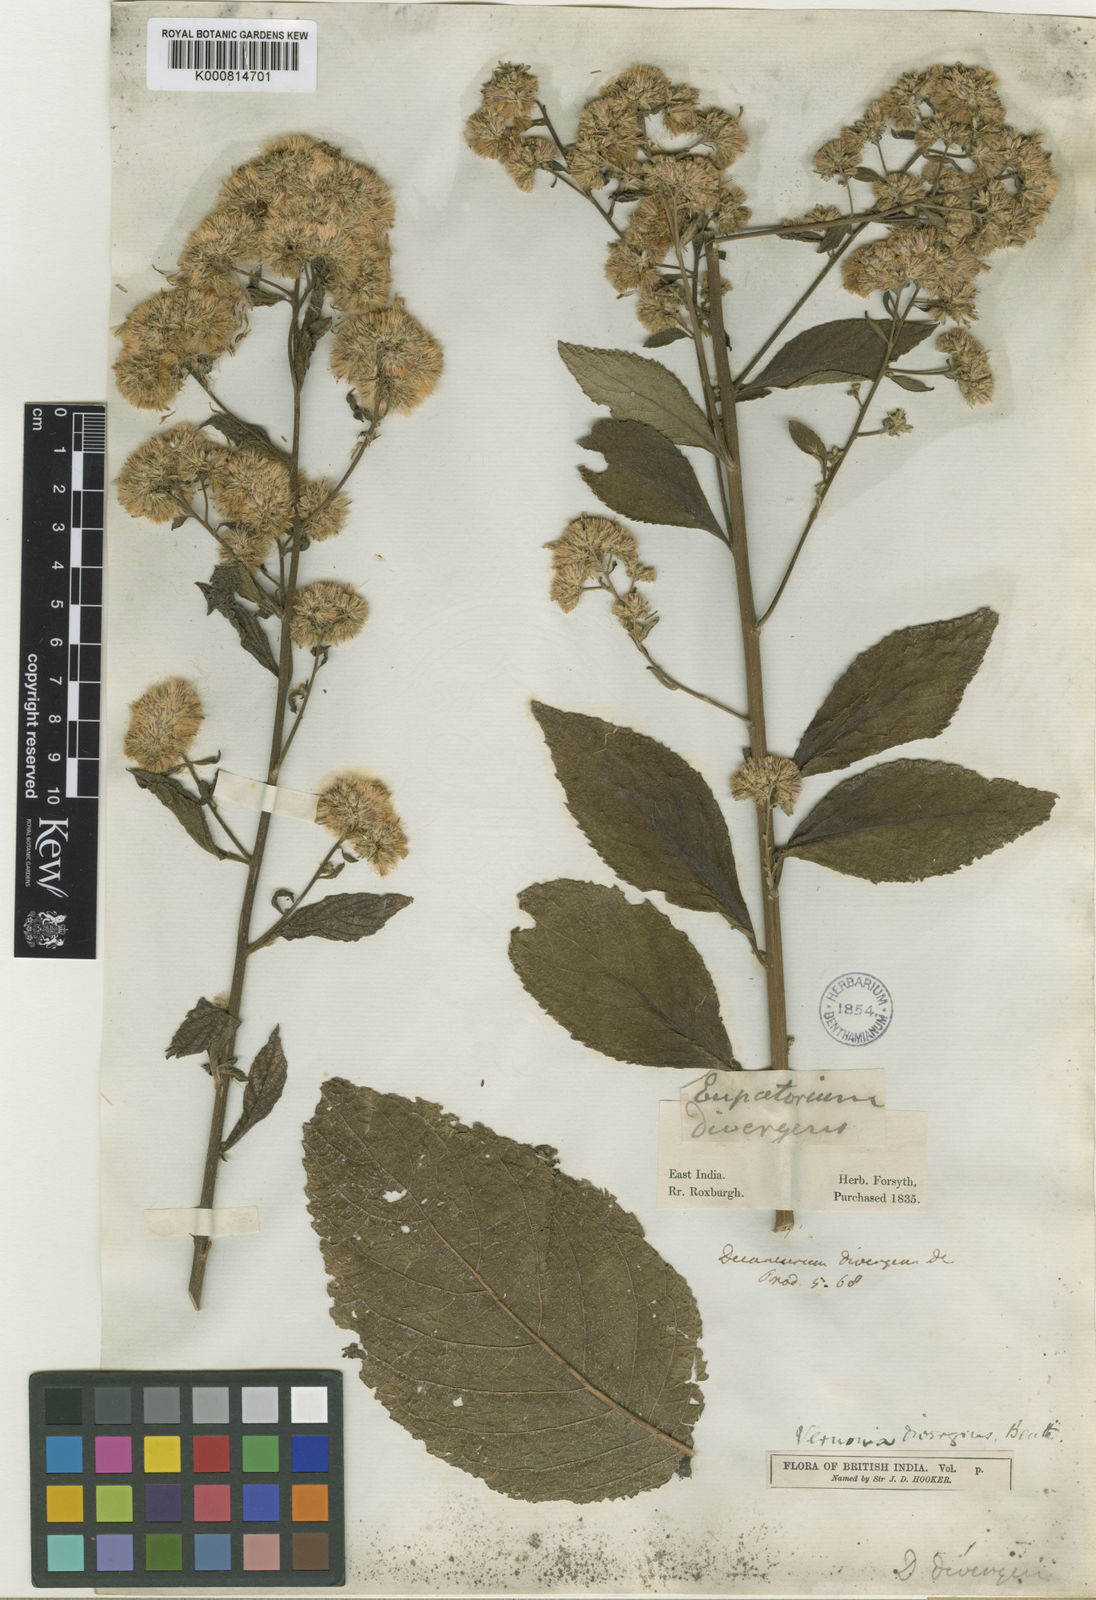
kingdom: Plantae
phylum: Tracheophyta
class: Magnoliopsida
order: Asterales
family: Asteraceae
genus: Vernonia
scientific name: Vernonia
